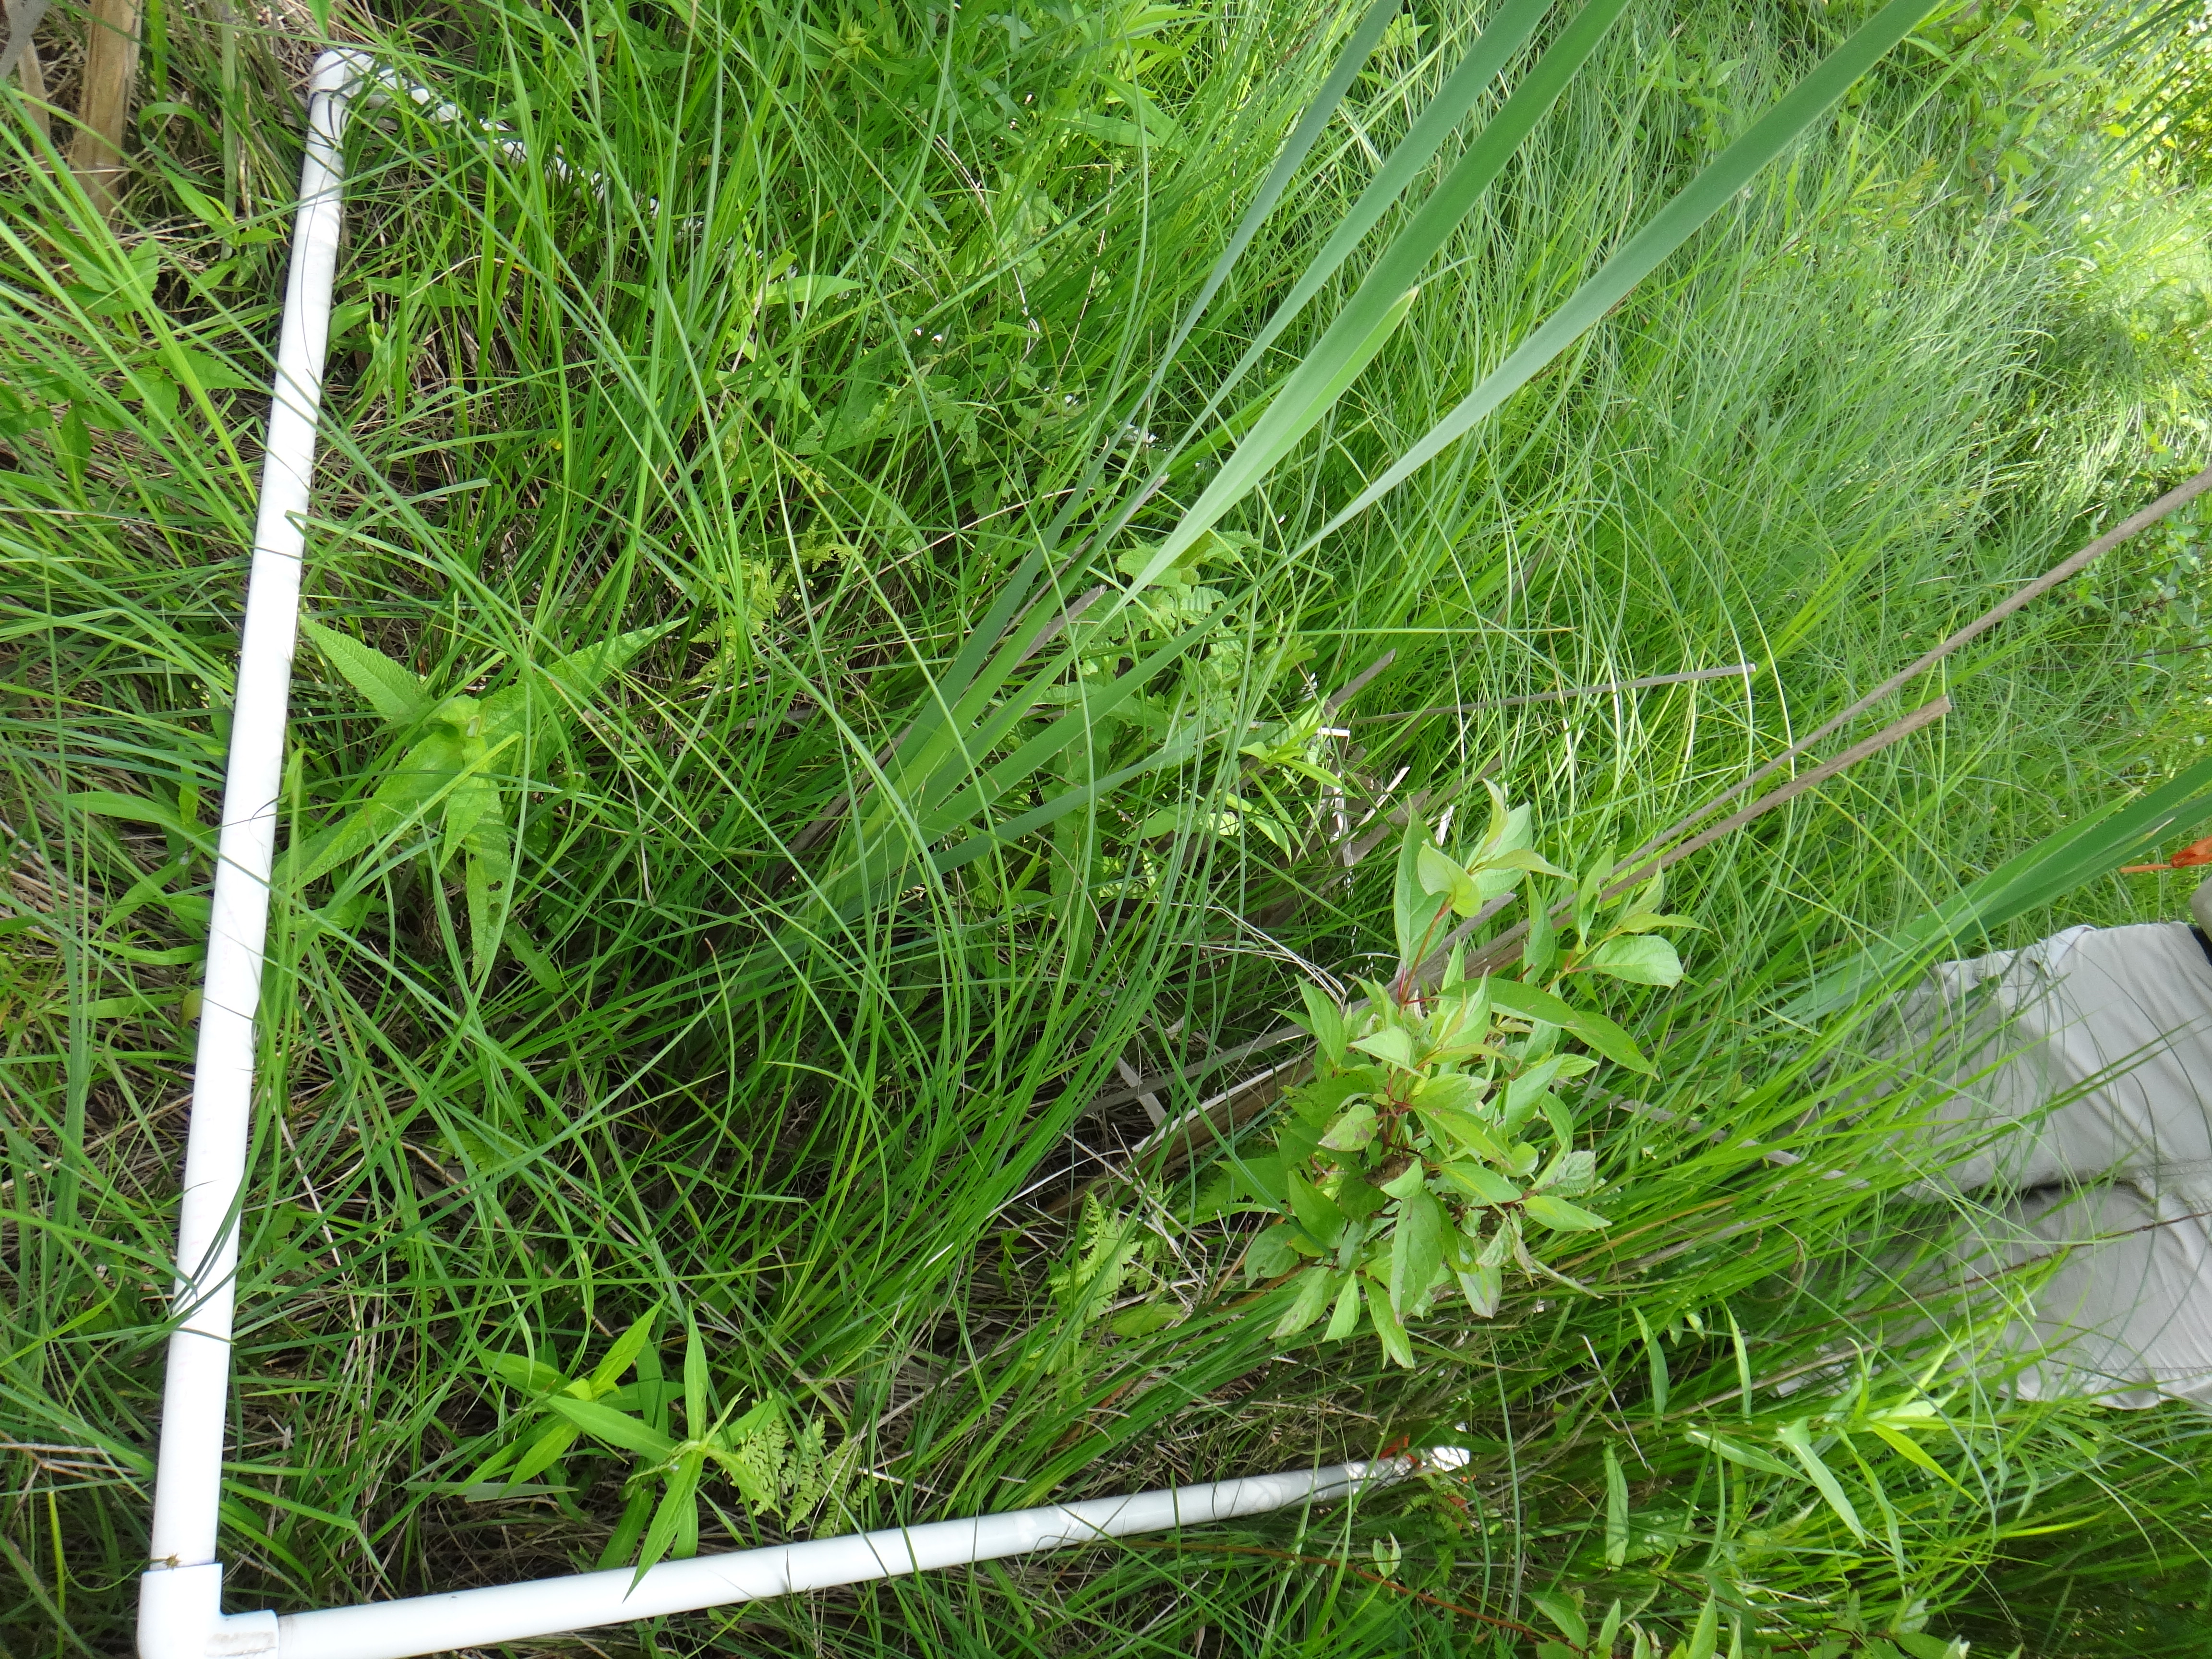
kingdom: Plantae
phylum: Tracheophyta
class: Liliopsida
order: Poales
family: Poaceae
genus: Calamagrostis
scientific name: Calamagrostis canadensis
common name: Canada bluejoint
